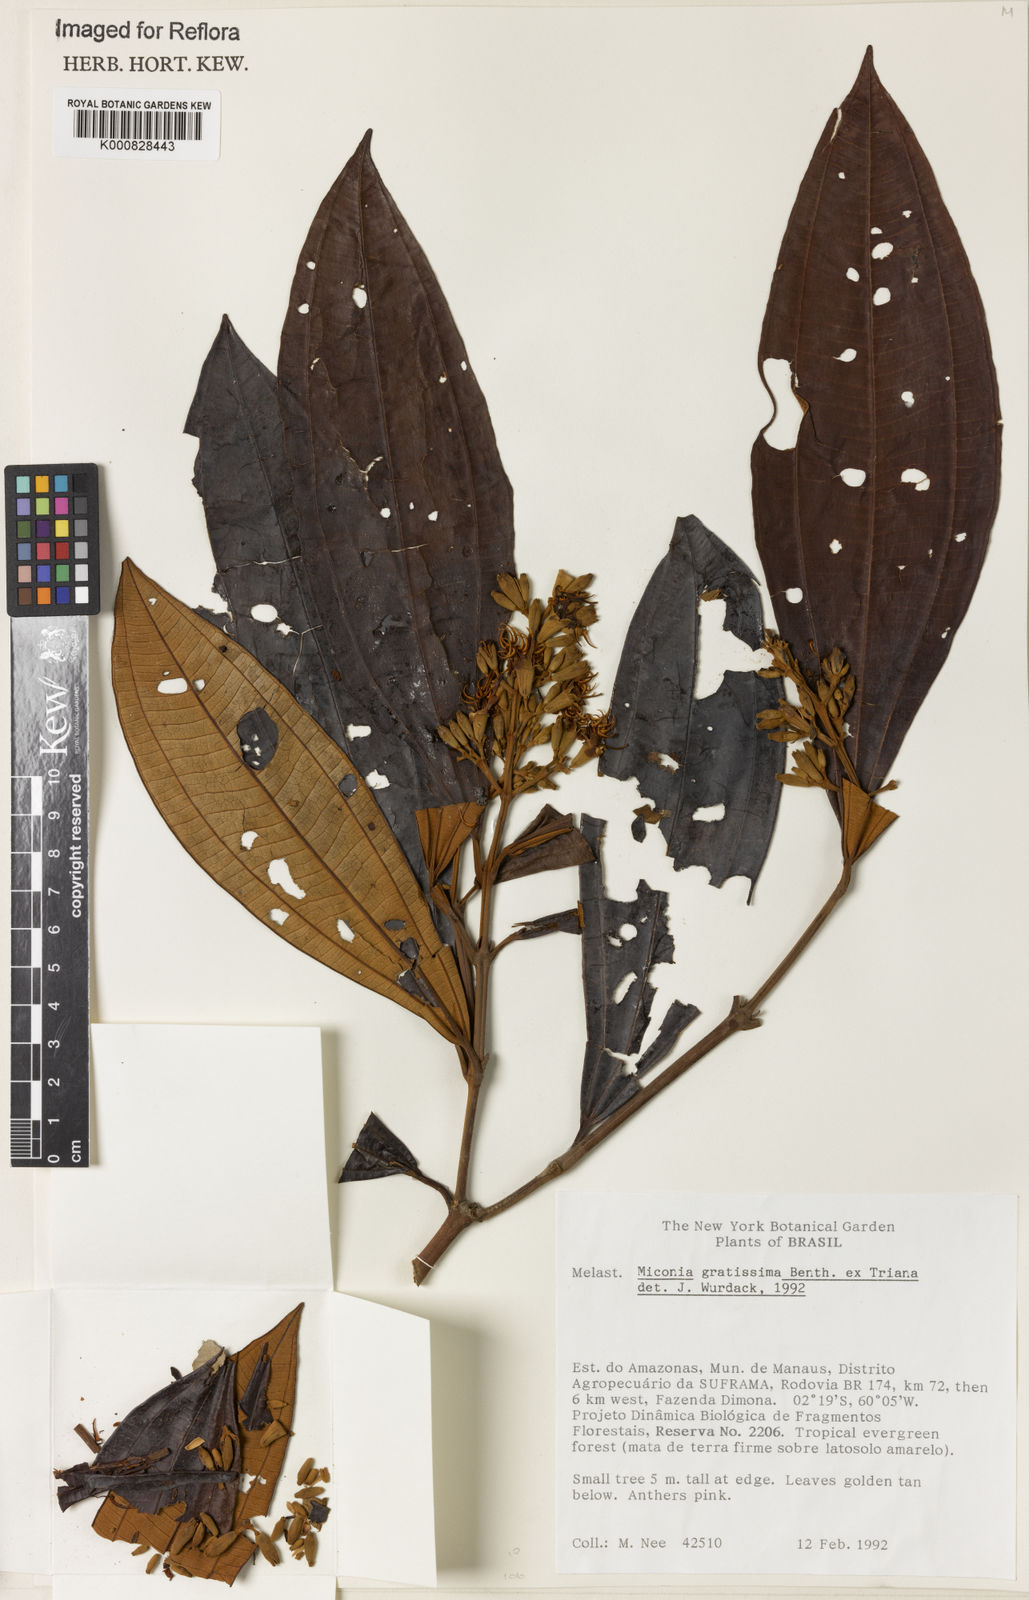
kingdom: Plantae
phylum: Tracheophyta
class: Magnoliopsida
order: Myrtales
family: Melastomataceae
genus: Miconia
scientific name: Miconia gratissima
